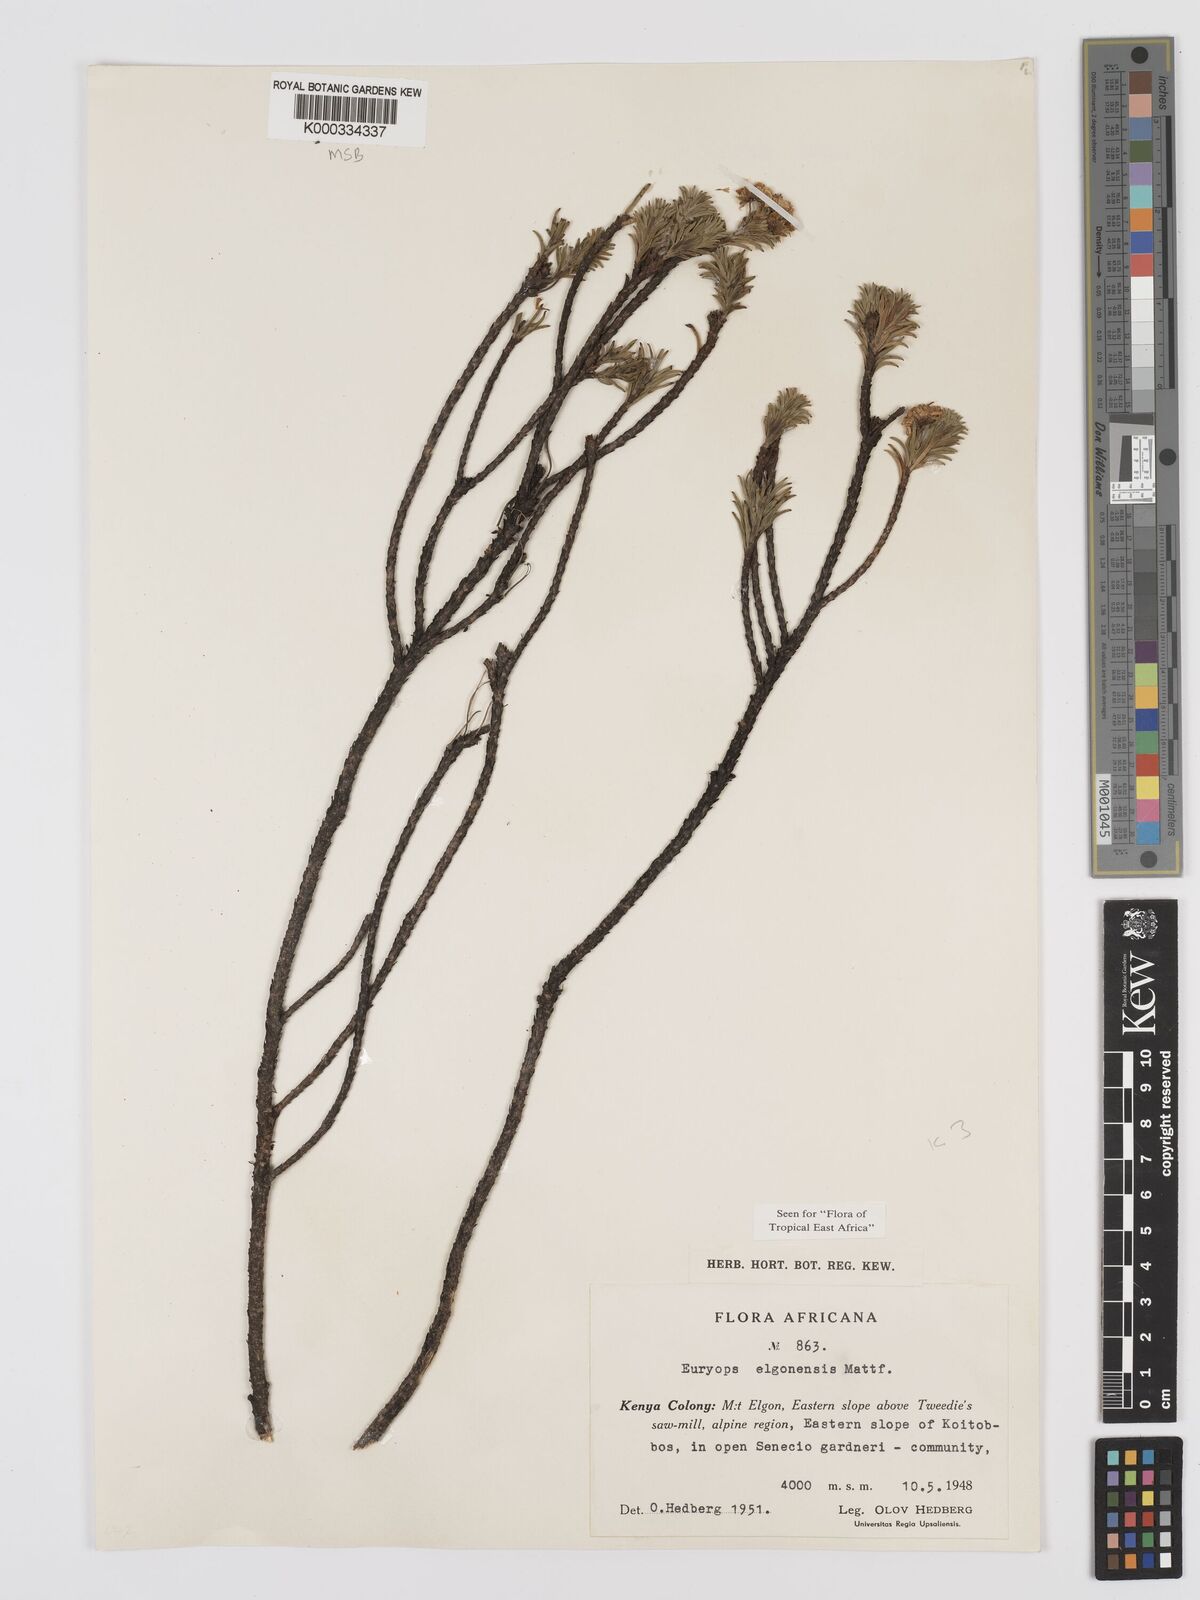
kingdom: Plantae
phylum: Tracheophyta
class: Magnoliopsida
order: Asterales
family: Asteraceae
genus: Euryops
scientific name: Euryops elgonensis
